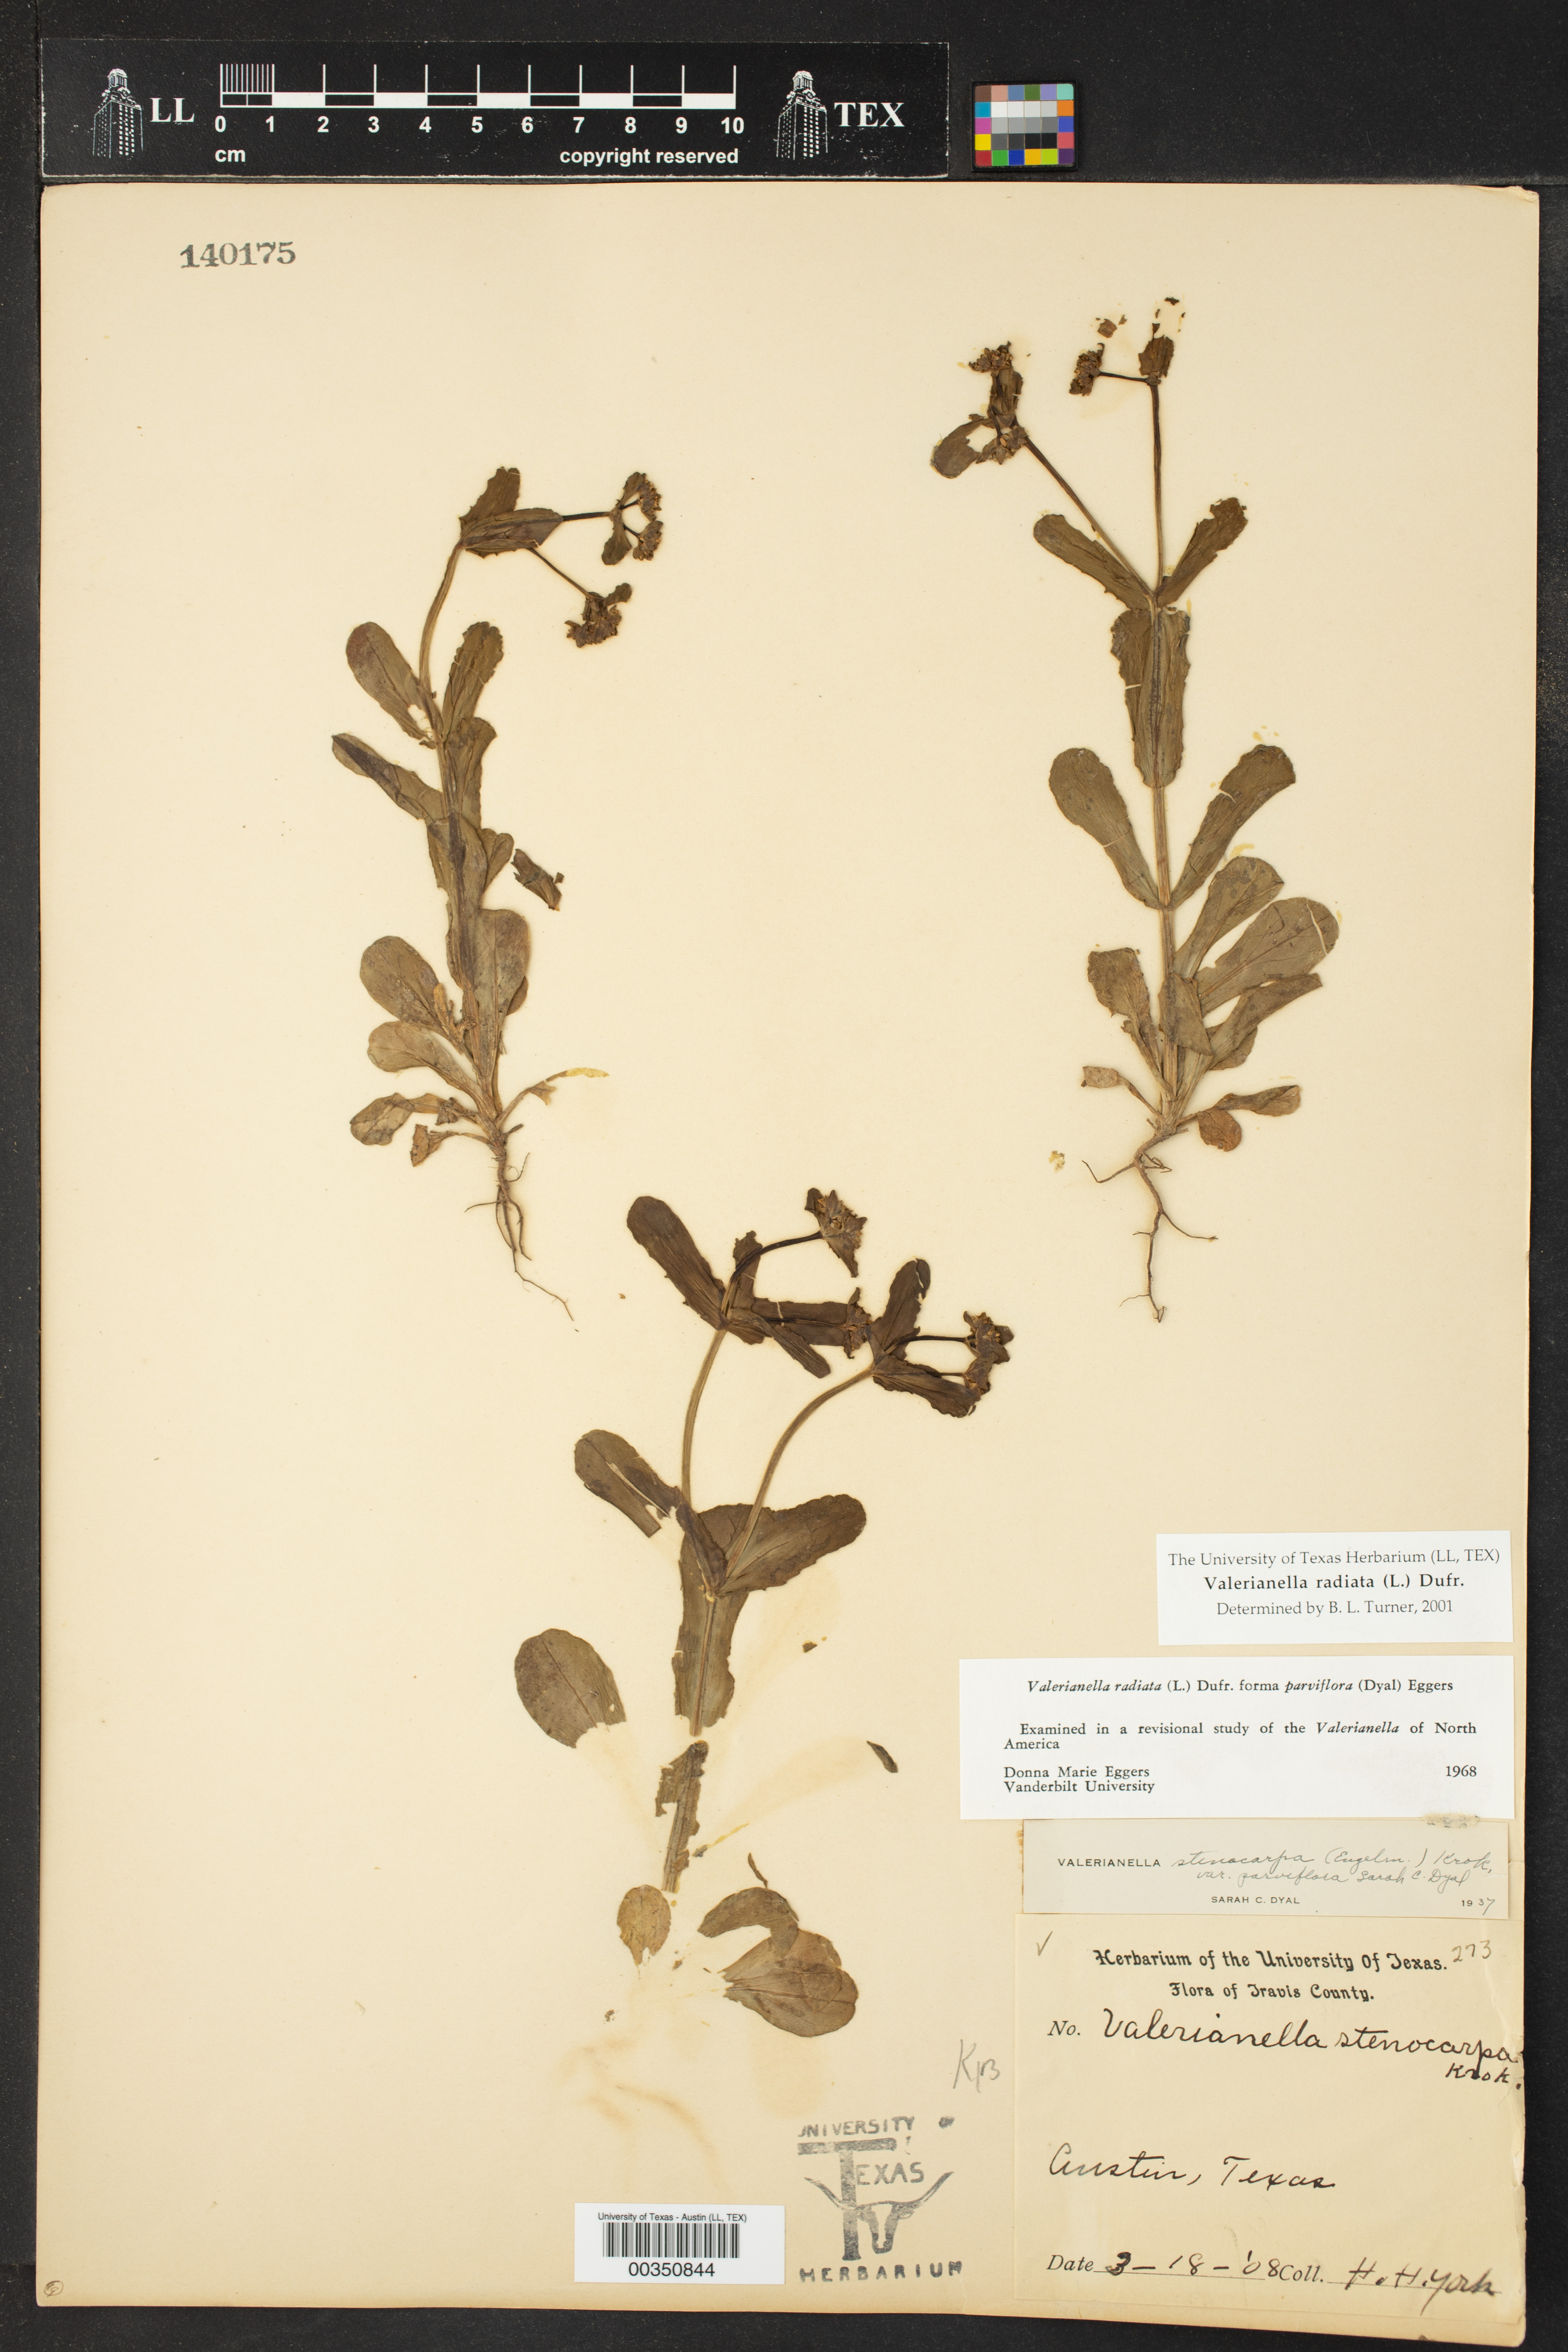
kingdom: Plantae
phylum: Tracheophyta
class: Magnoliopsida
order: Dipsacales
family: Caprifoliaceae
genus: Valerianella
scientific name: Valerianella radiata
